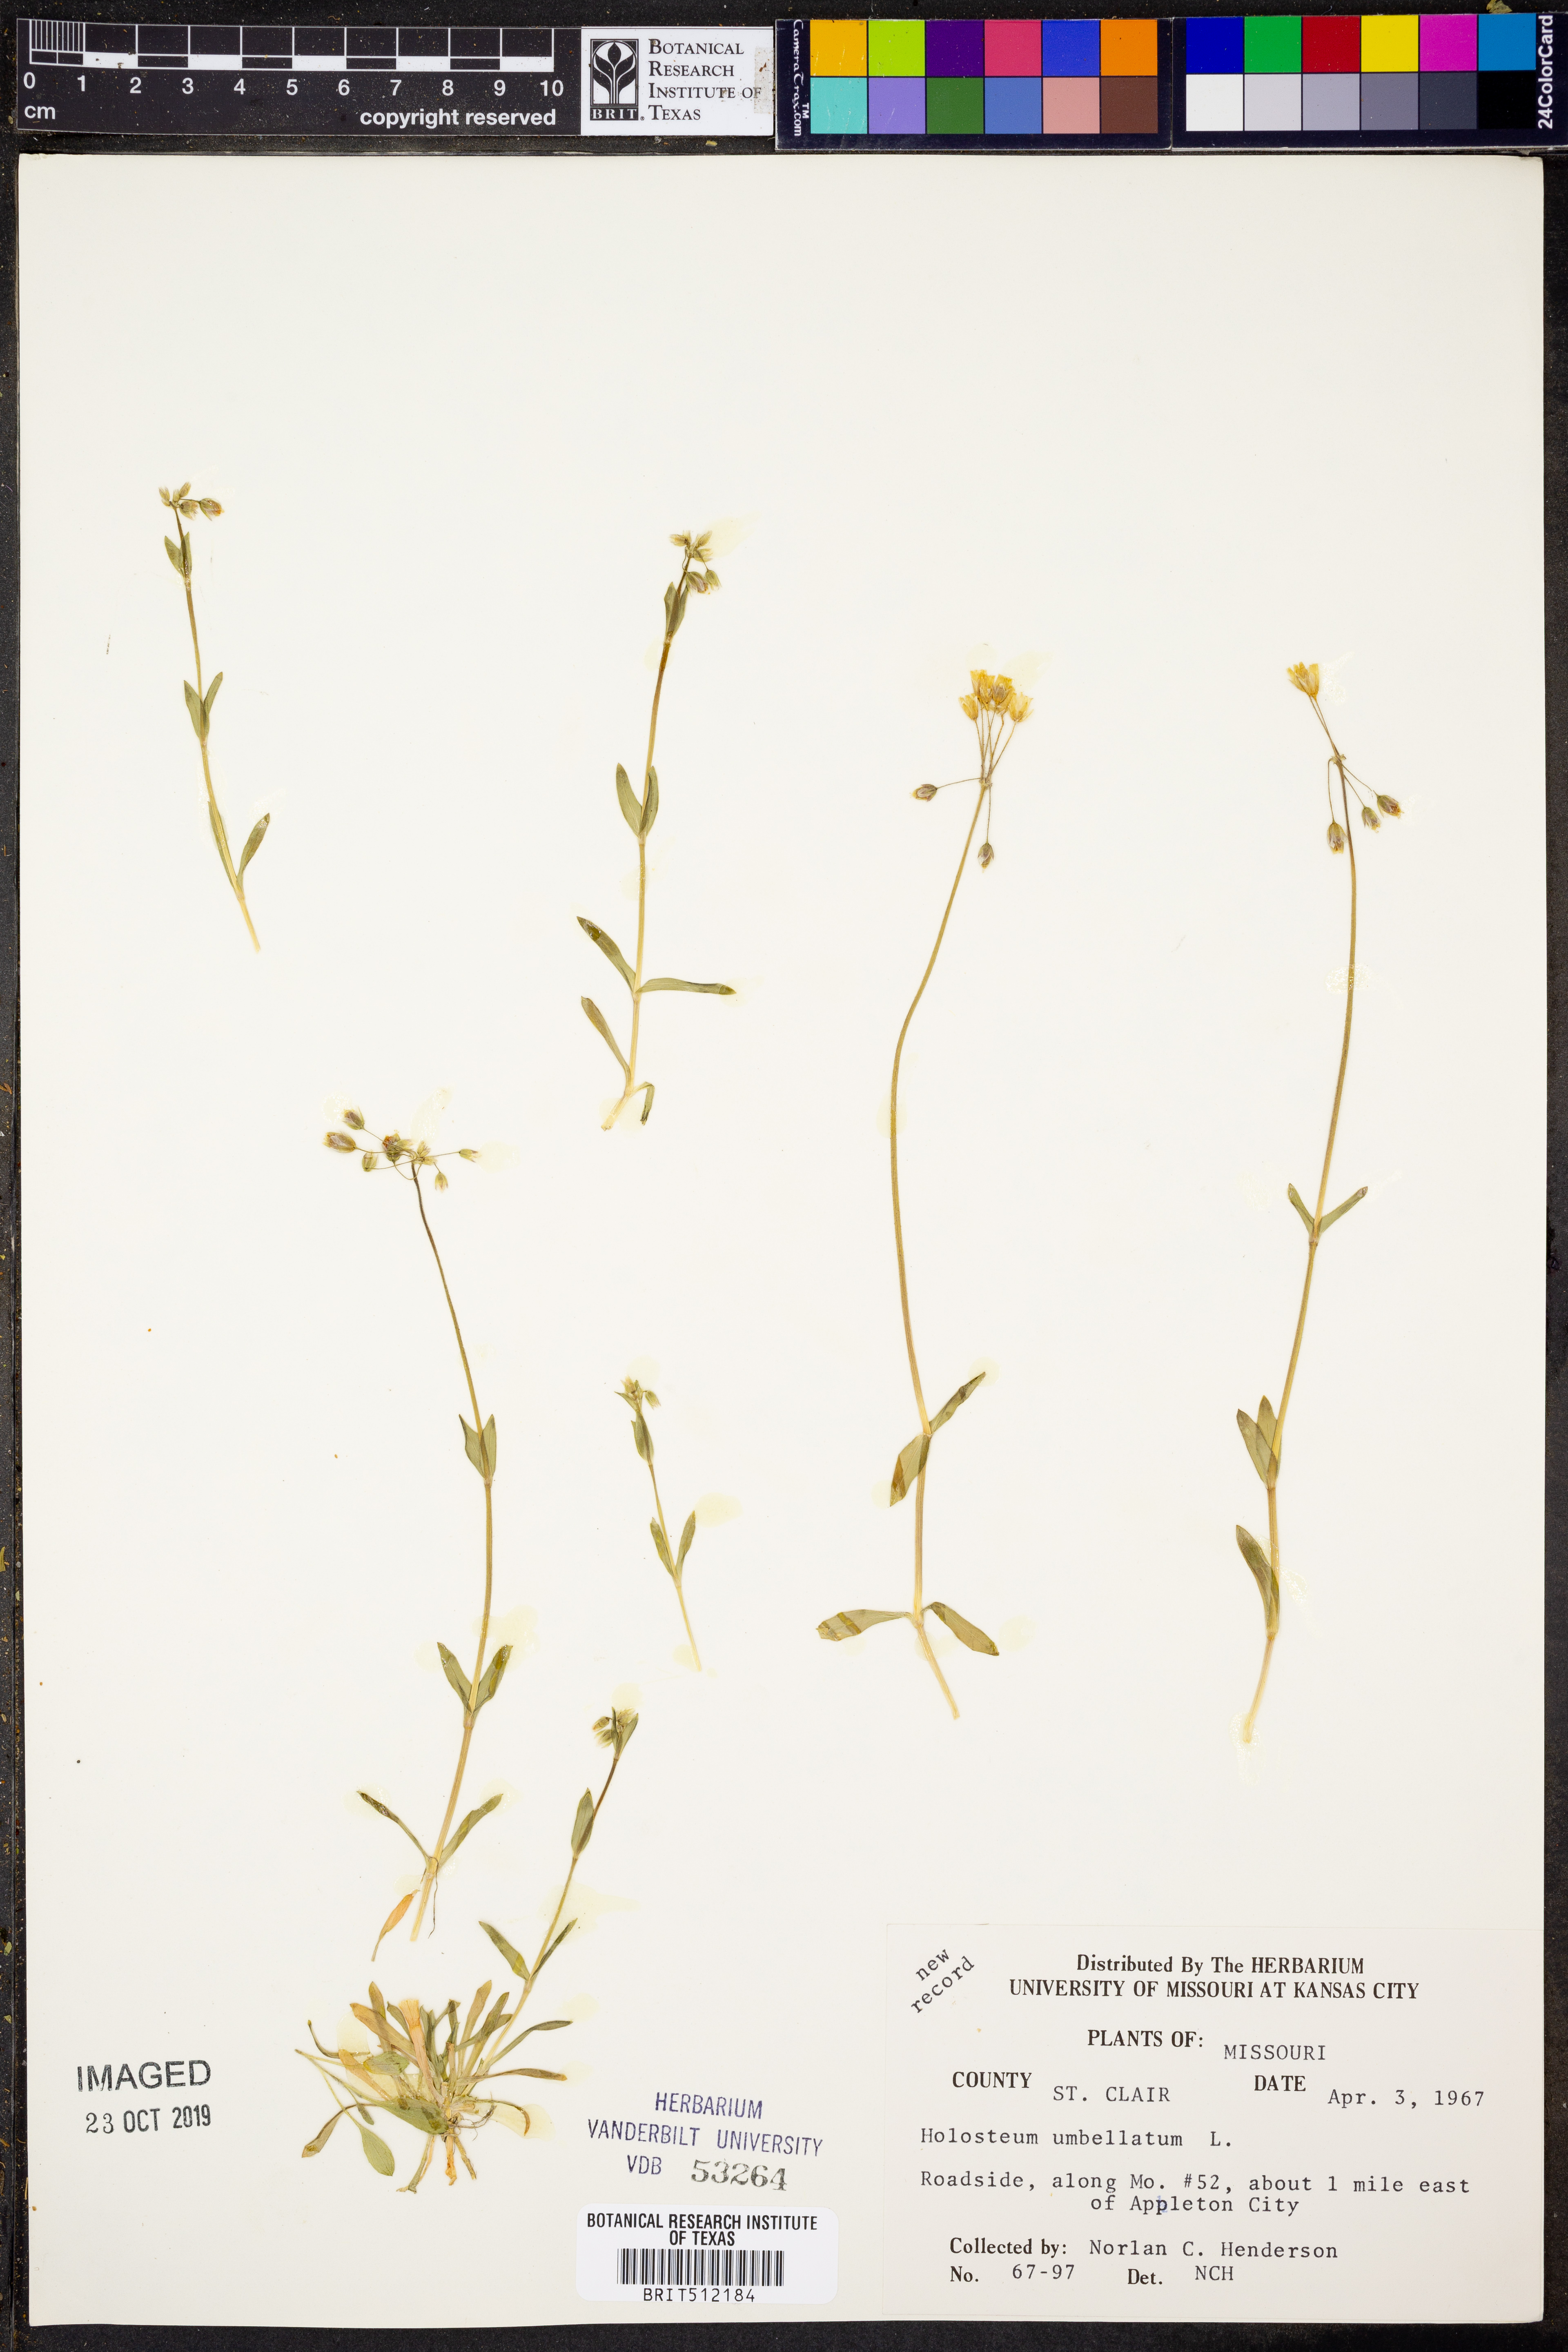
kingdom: Plantae
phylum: Tracheophyta
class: Magnoliopsida
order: Caryophyllales
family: Caryophyllaceae
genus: Holosteum
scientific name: Holosteum umbellatum
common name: Jagged chickweed
